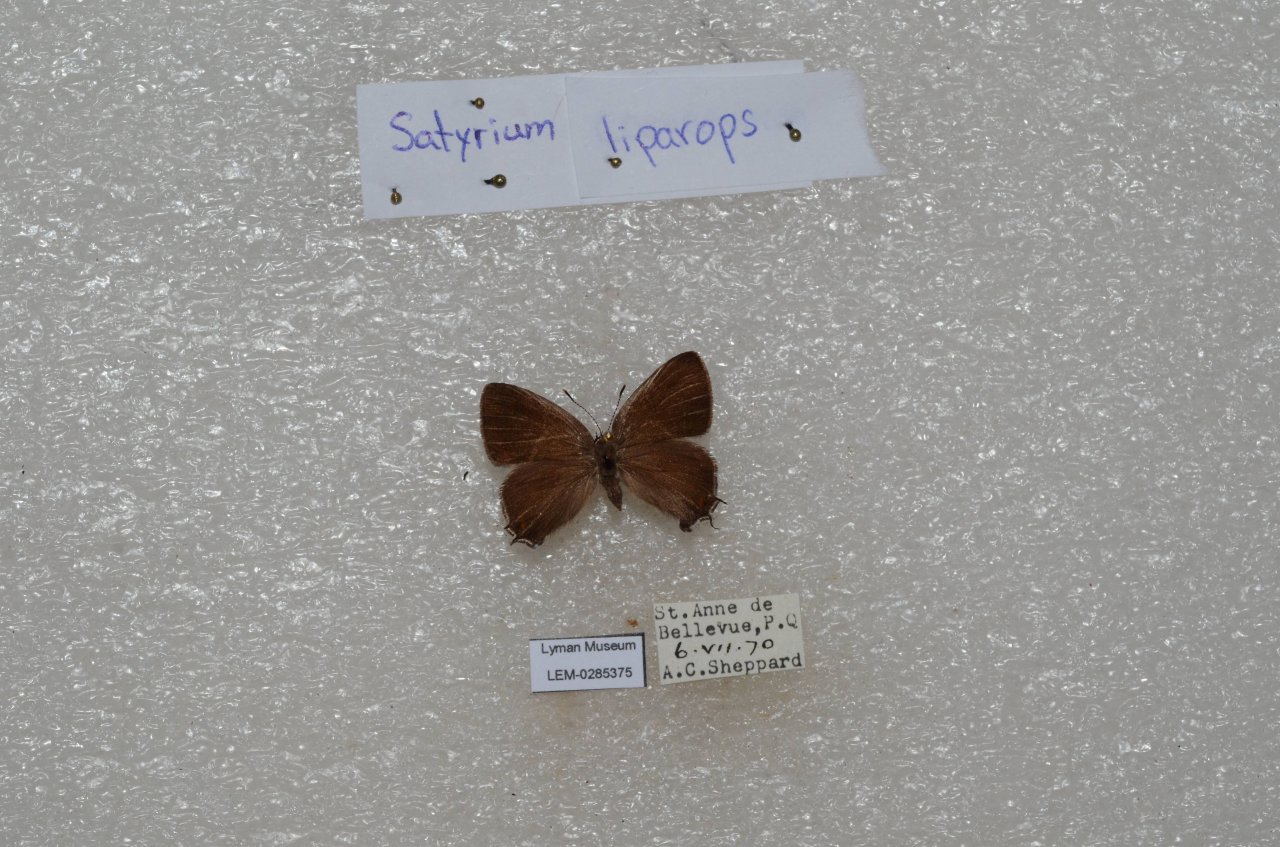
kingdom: Animalia
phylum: Arthropoda
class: Insecta
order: Lepidoptera
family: Lycaenidae
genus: Satyrium
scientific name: Satyrium liparops
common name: Striped Hairstreak
